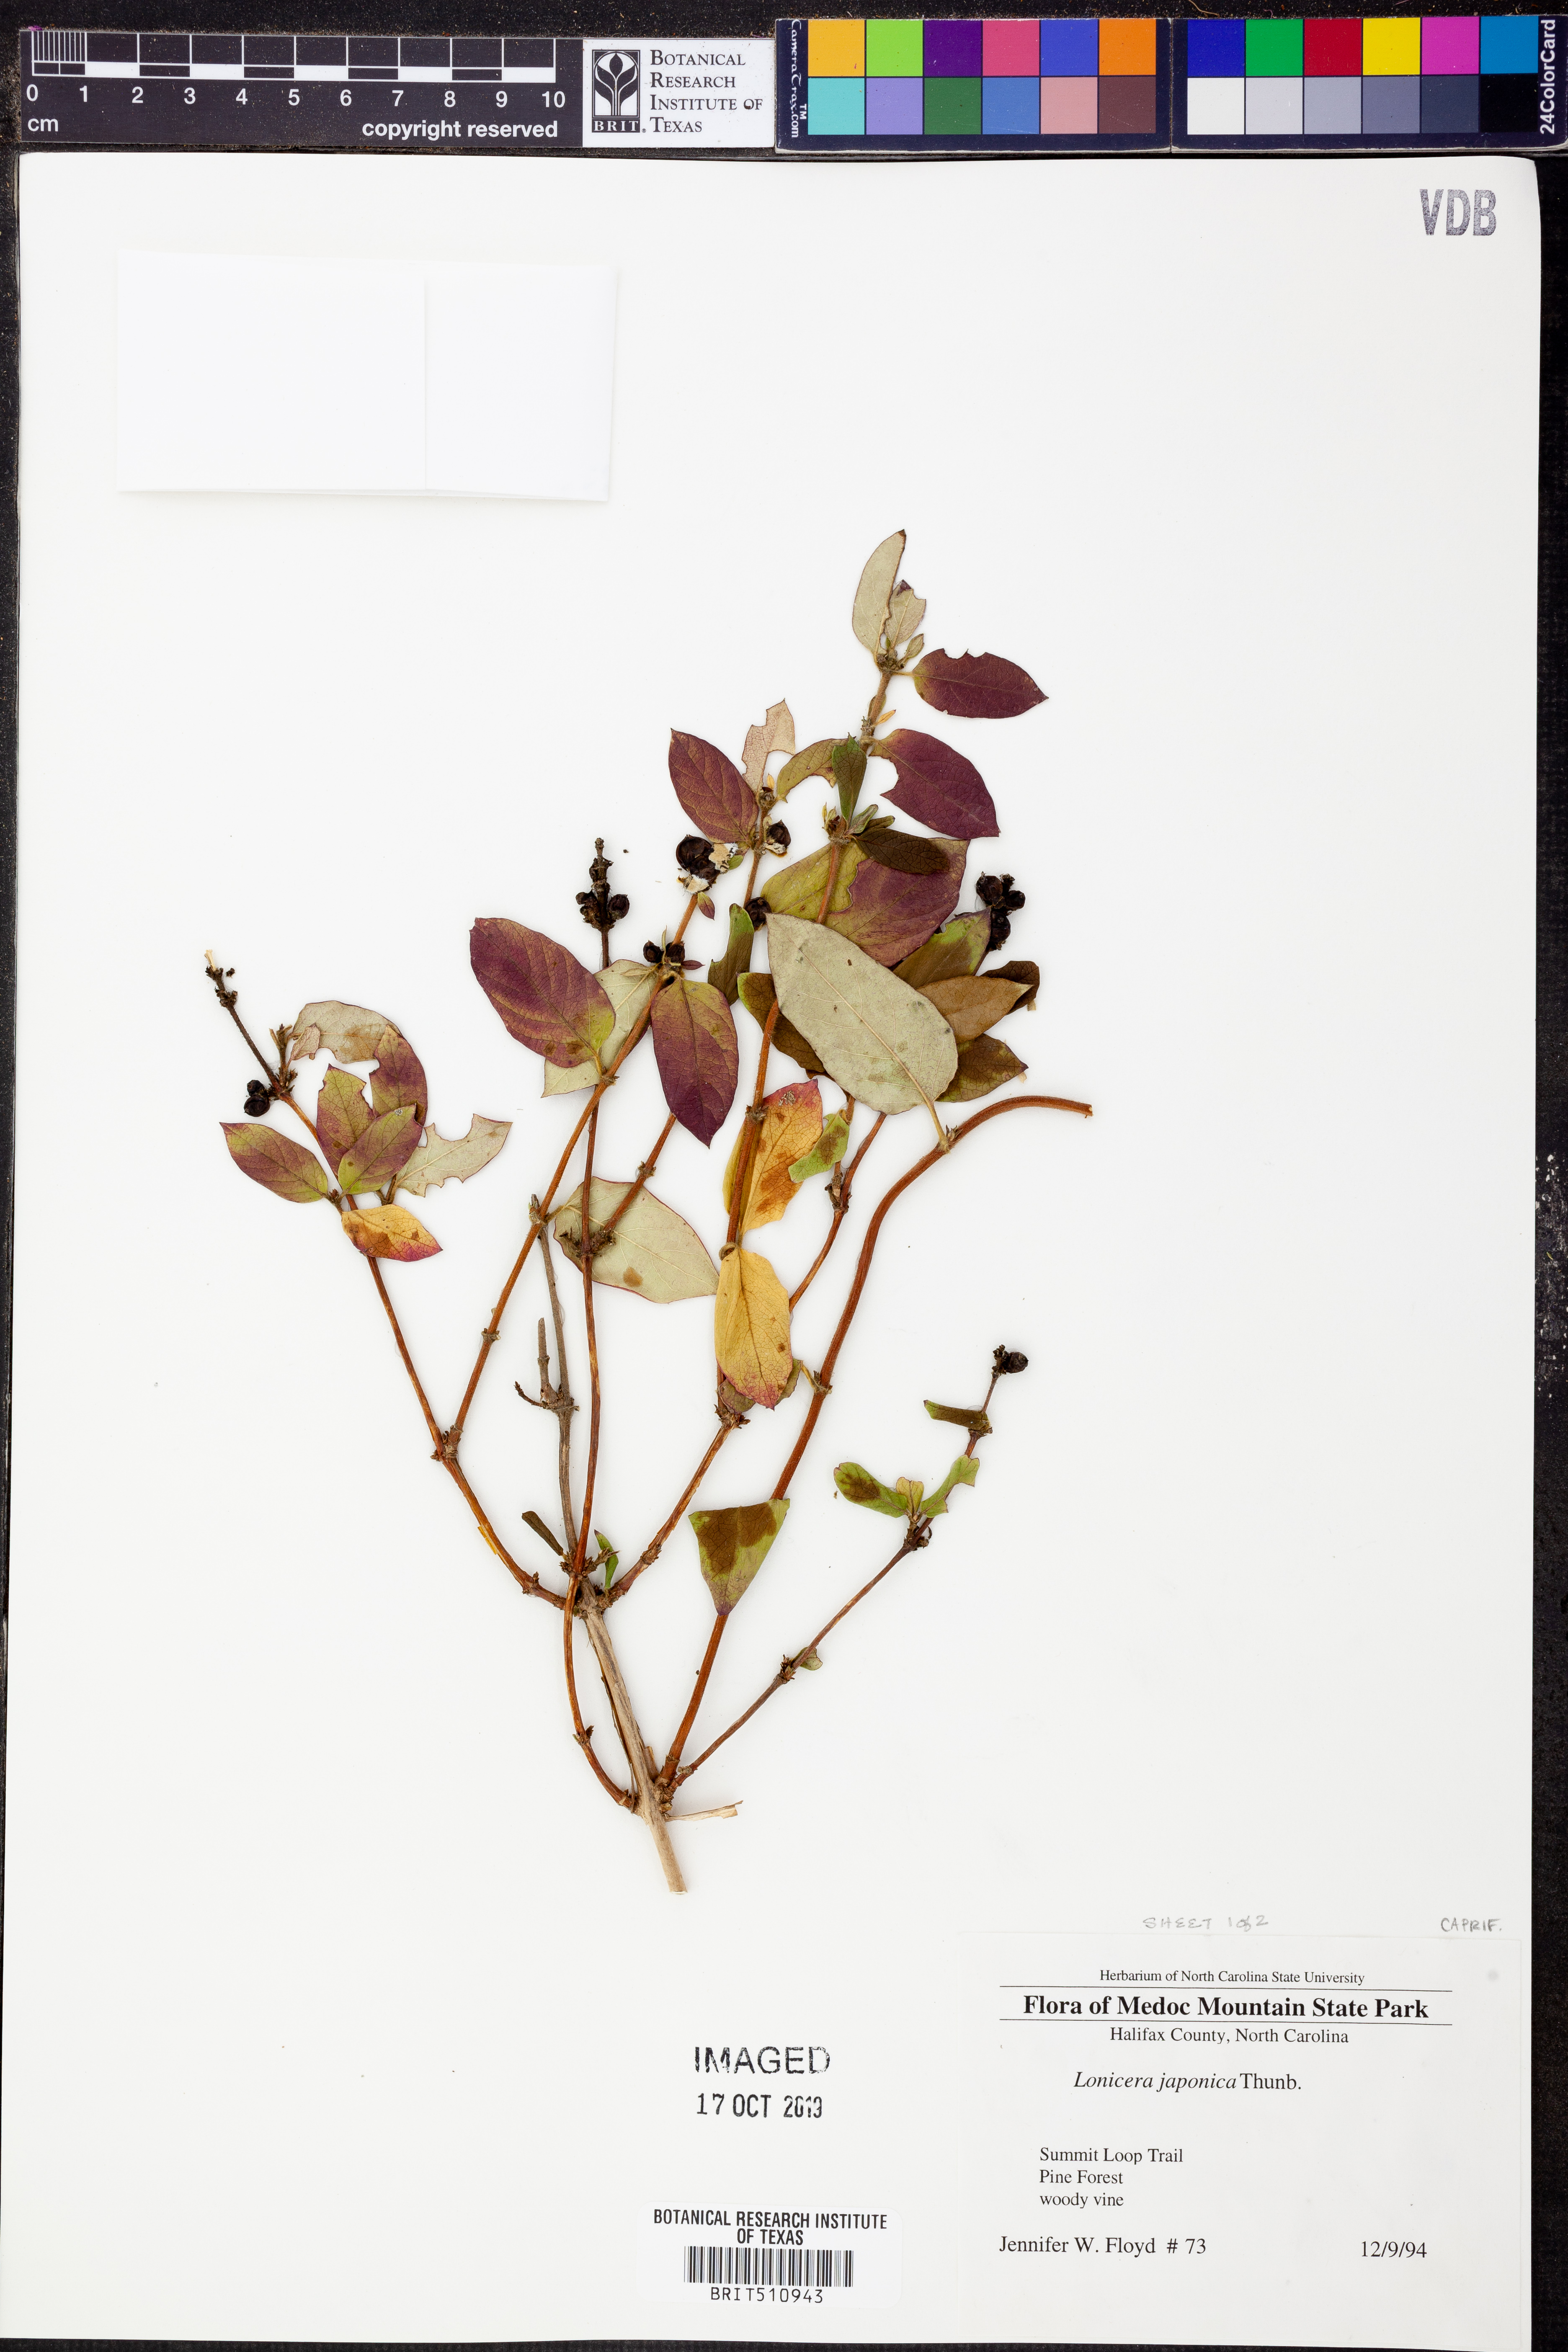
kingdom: Plantae
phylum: Tracheophyta
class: Magnoliopsida
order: Dipsacales
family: Caprifoliaceae
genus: Lonicera
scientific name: Lonicera japonica
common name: Japanese honeysuckle
